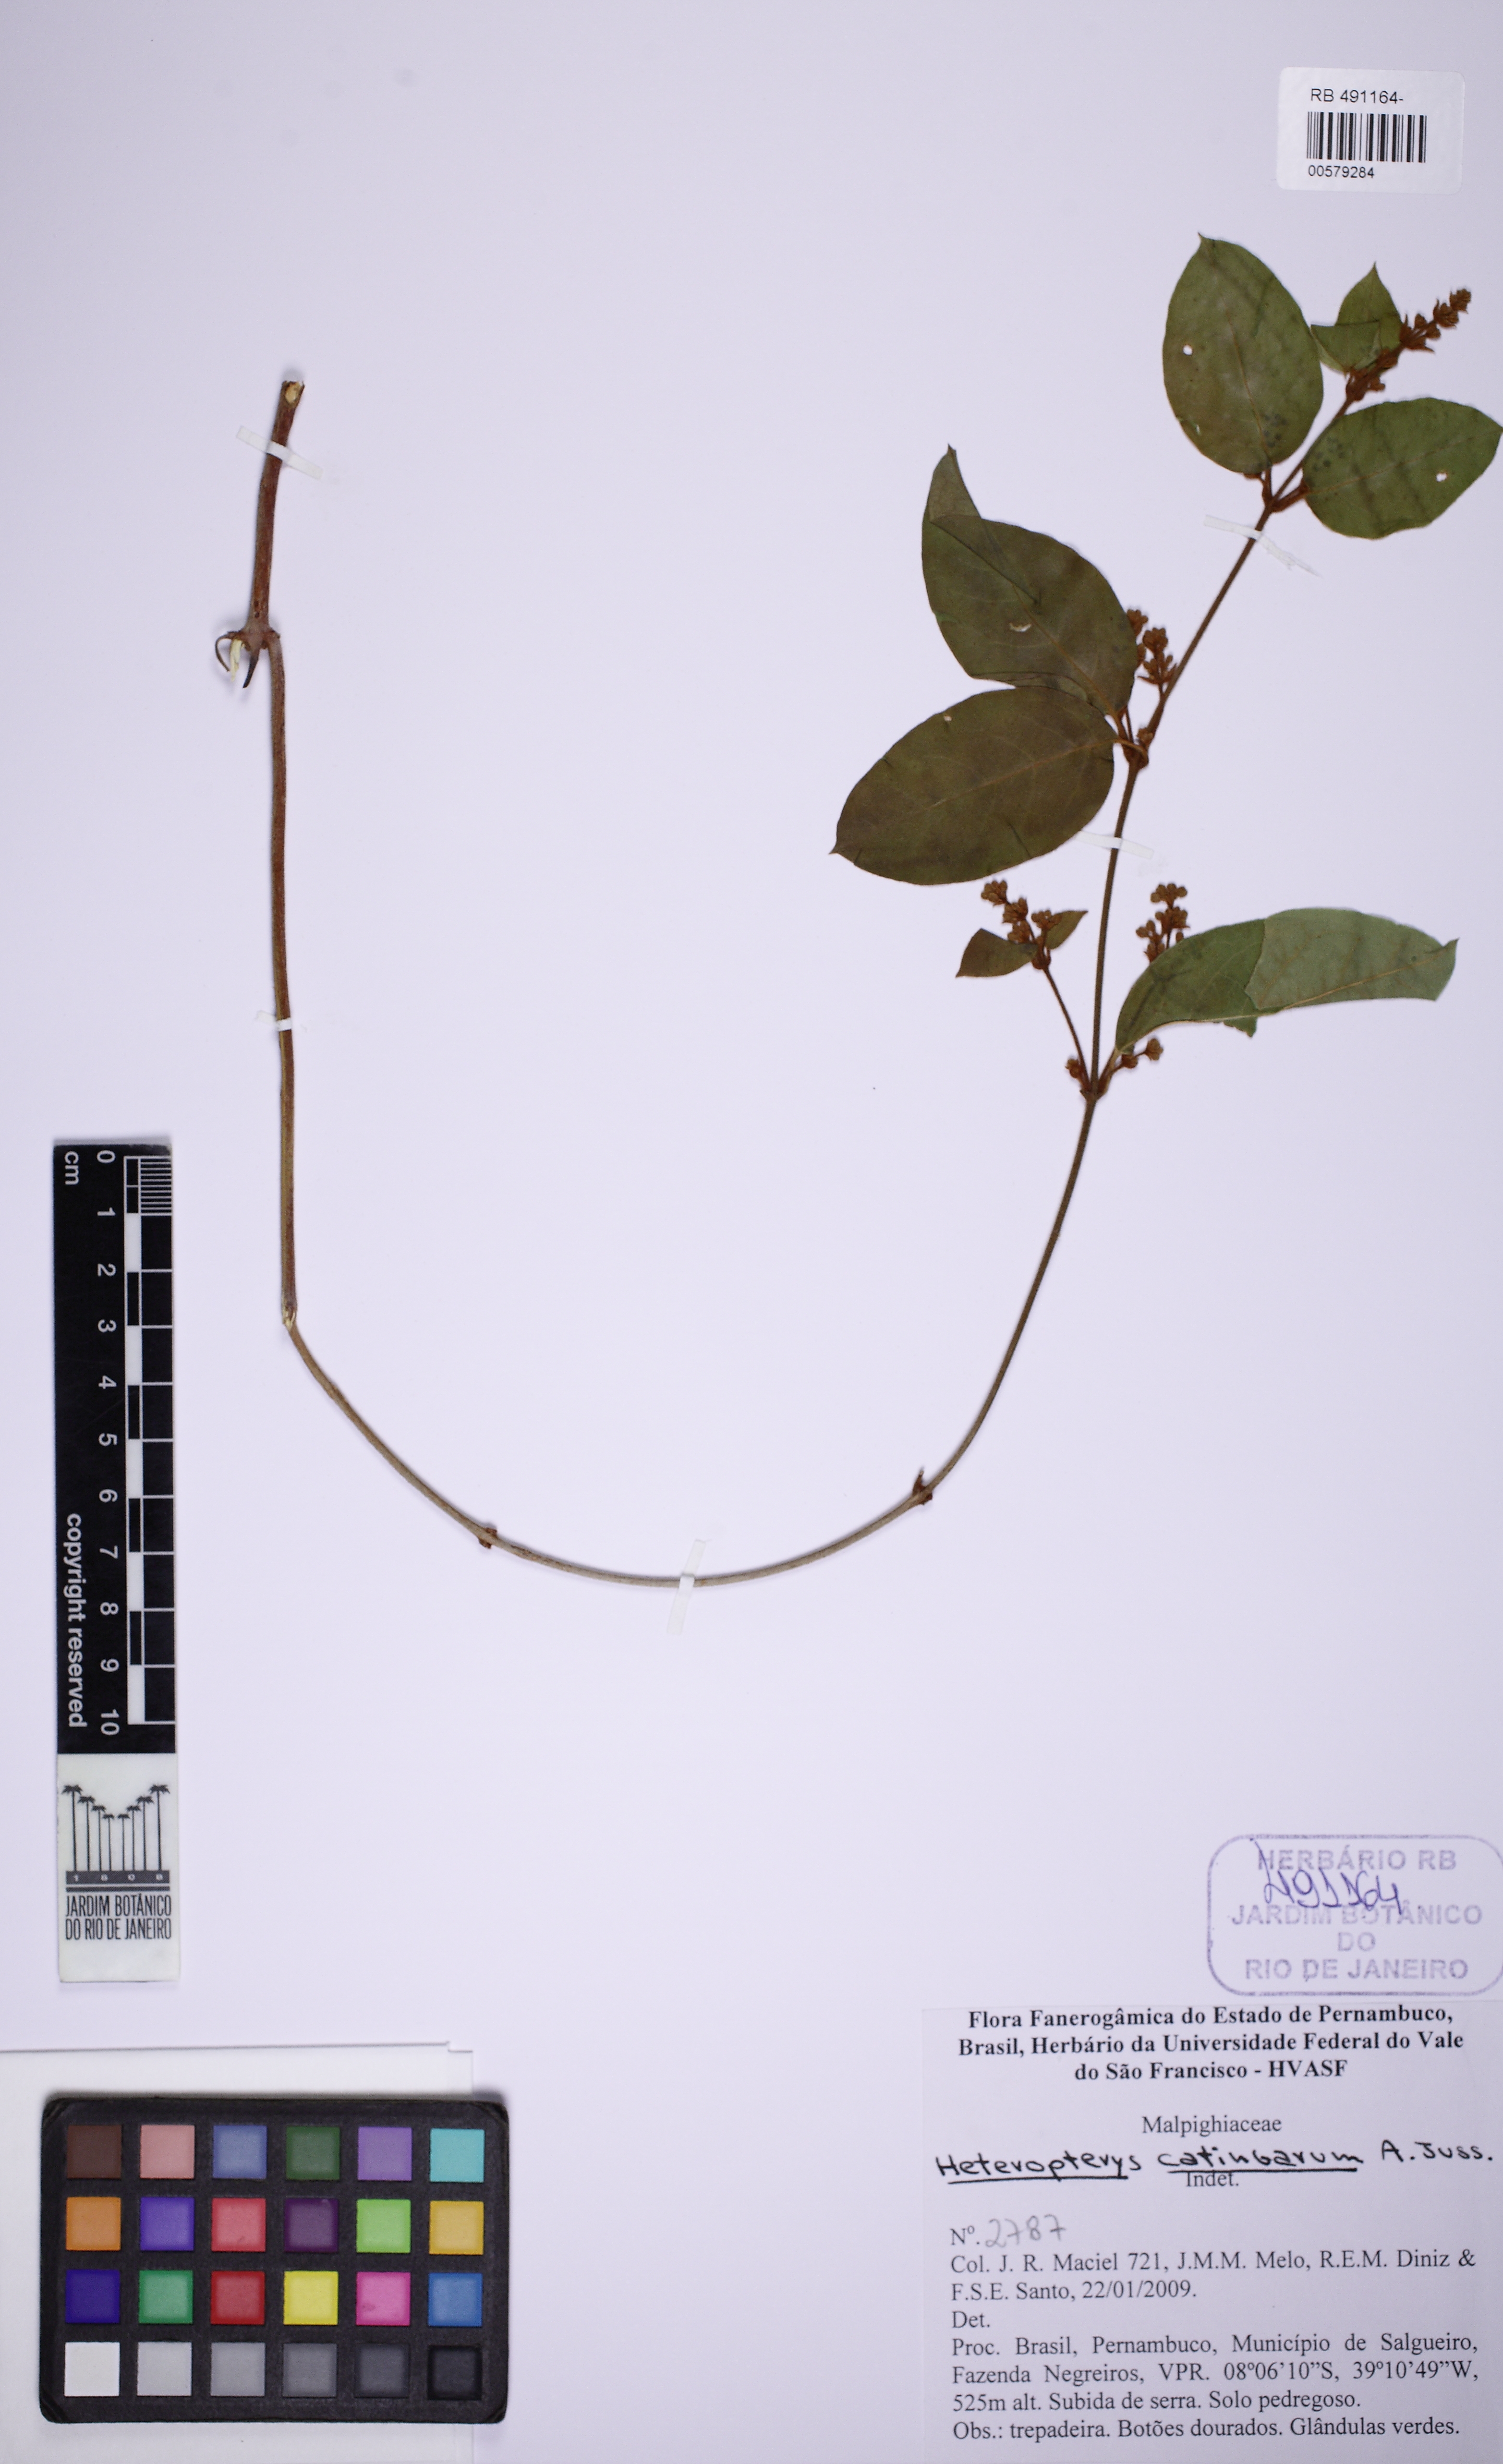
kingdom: Plantae
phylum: Tracheophyta
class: Magnoliopsida
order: Malpighiales
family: Malpighiaceae
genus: Heteropterys
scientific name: Heteropterys catingarum
